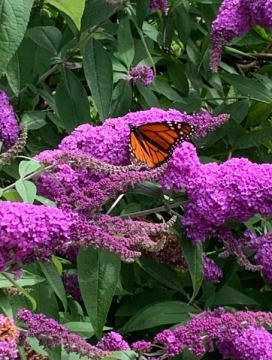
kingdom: Animalia
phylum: Arthropoda
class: Insecta
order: Lepidoptera
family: Nymphalidae
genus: Danaus
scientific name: Danaus plexippus
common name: Monarch
